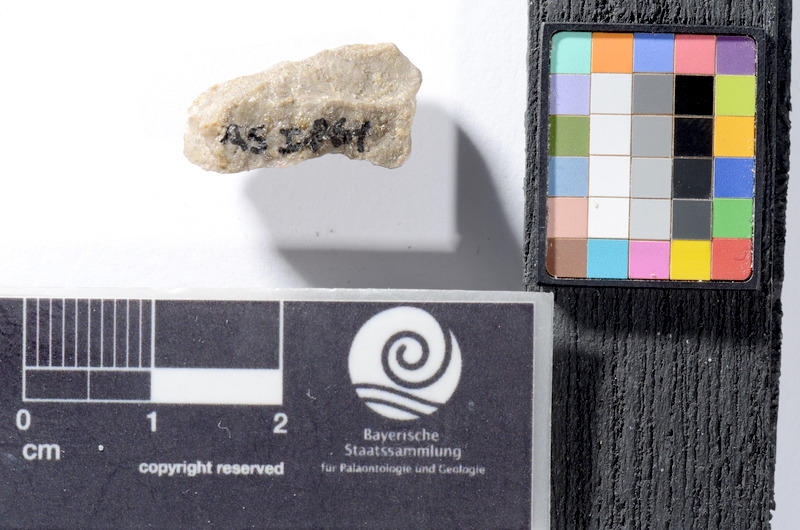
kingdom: Animalia
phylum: Chordata
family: Colobodontidae
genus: Colobodus
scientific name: Colobodus frequens
